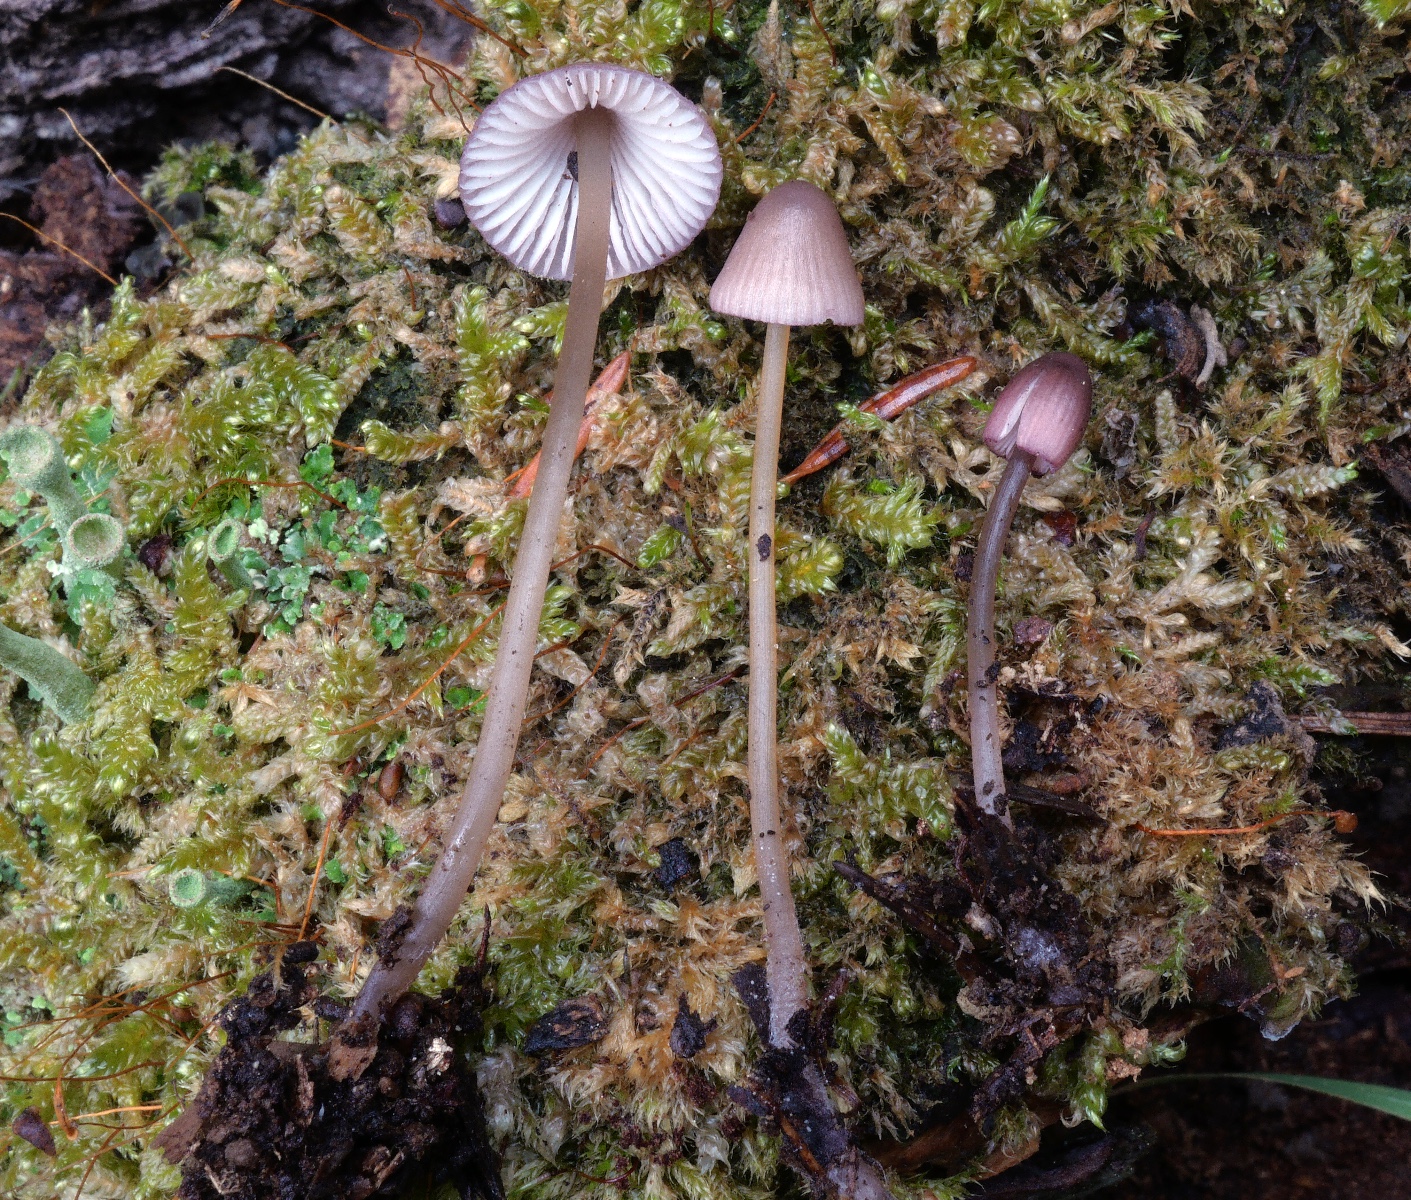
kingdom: Fungi
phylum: Basidiomycota
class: Agaricomycetes
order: Agaricales
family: Mycenaceae
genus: Mycena
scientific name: Mycena purpureofusca
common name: purpur-huesvamp
